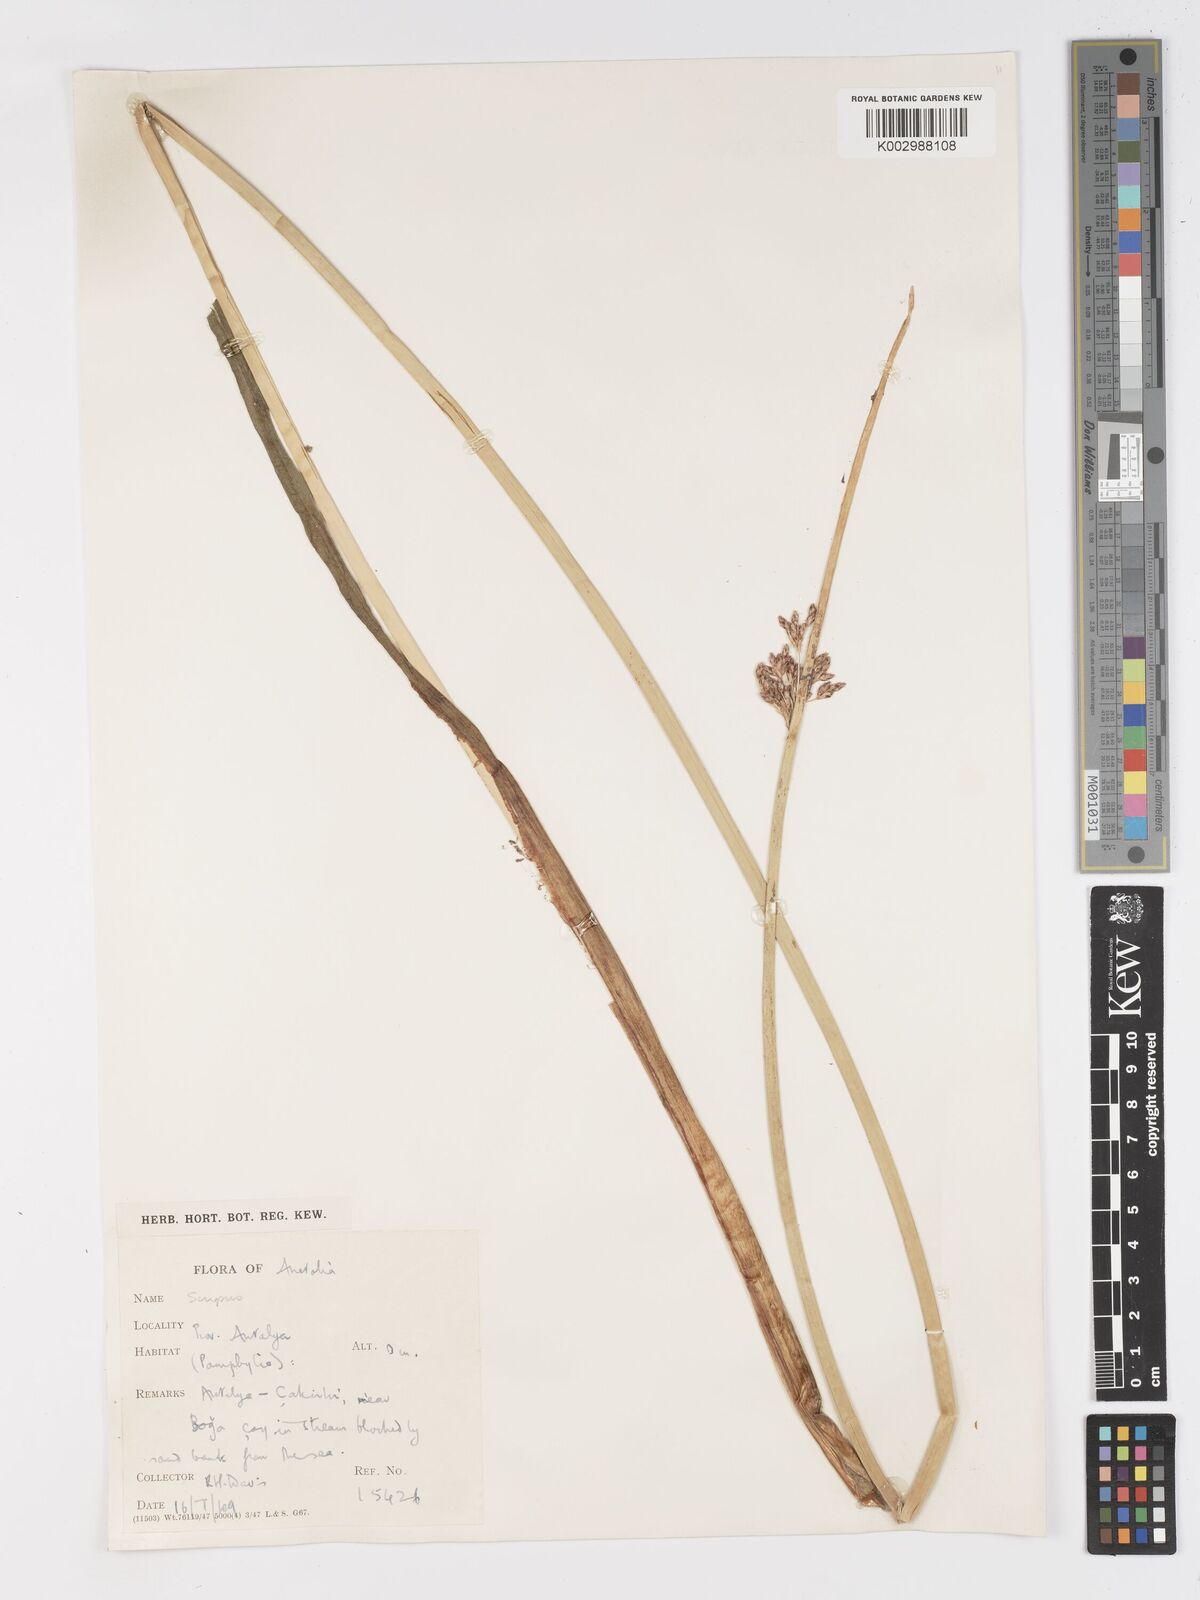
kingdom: Plantae
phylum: Tracheophyta
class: Liliopsida
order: Poales
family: Cyperaceae
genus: Schoenoplectus
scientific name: Schoenoplectus litoralis
